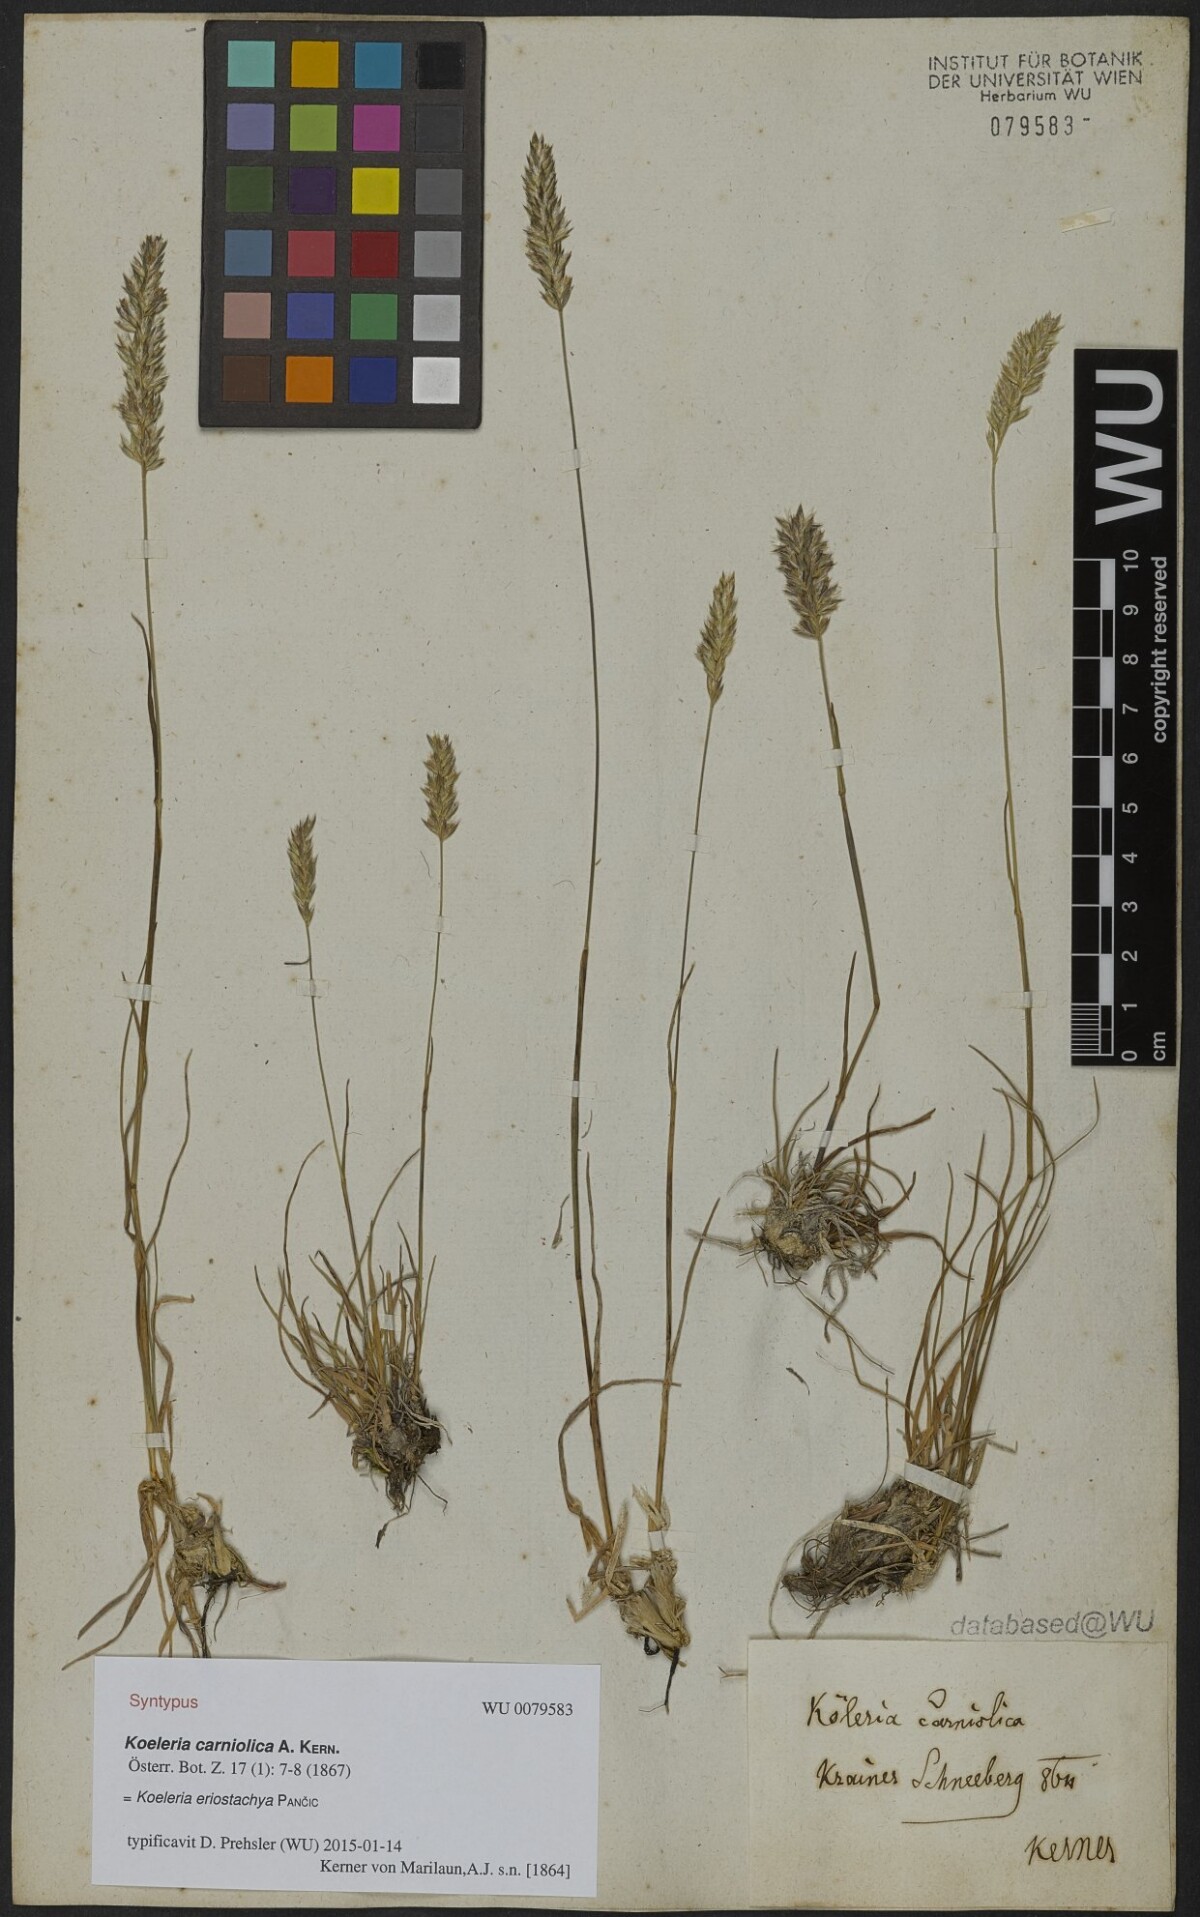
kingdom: Plantae
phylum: Tracheophyta
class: Liliopsida
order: Poales
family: Poaceae
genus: Koeleria
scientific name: Koeleria eriostachya
